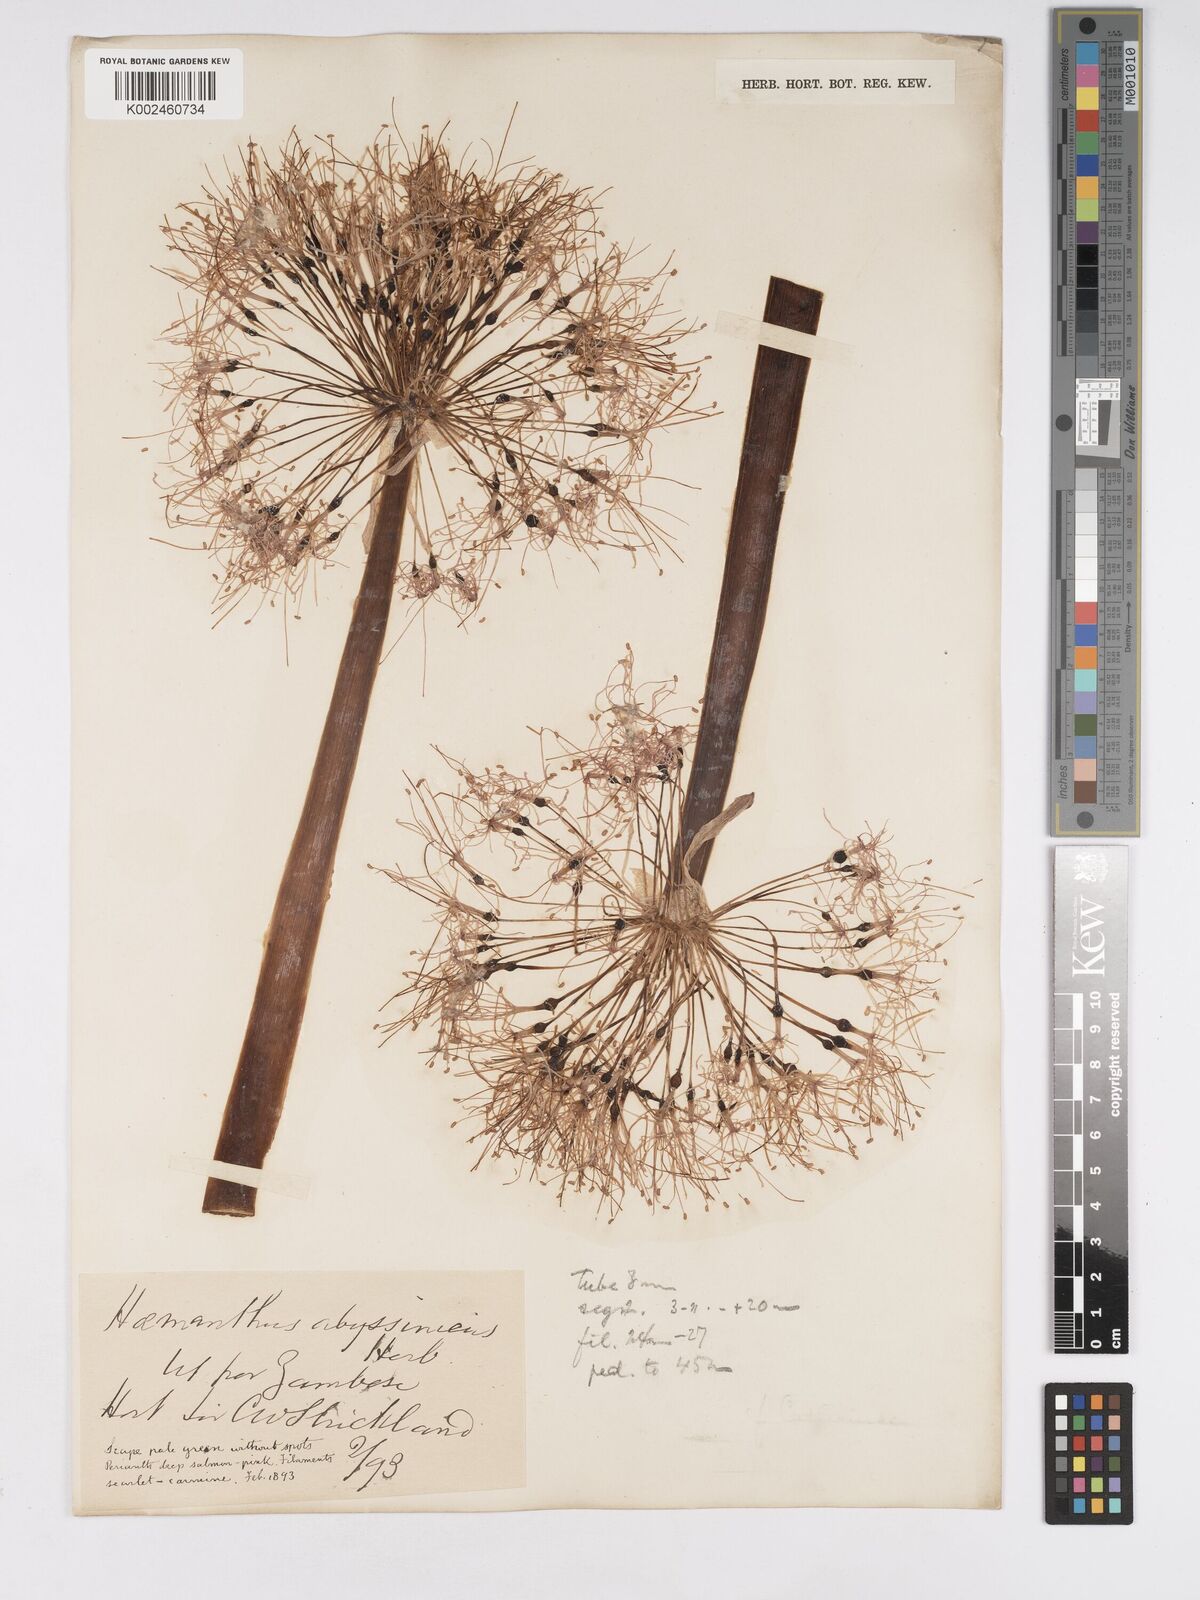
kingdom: Plantae
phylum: Tracheophyta
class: Liliopsida
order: Asparagales
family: Amaryllidaceae
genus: Scadoxus
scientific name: Scadoxus multiflorus
